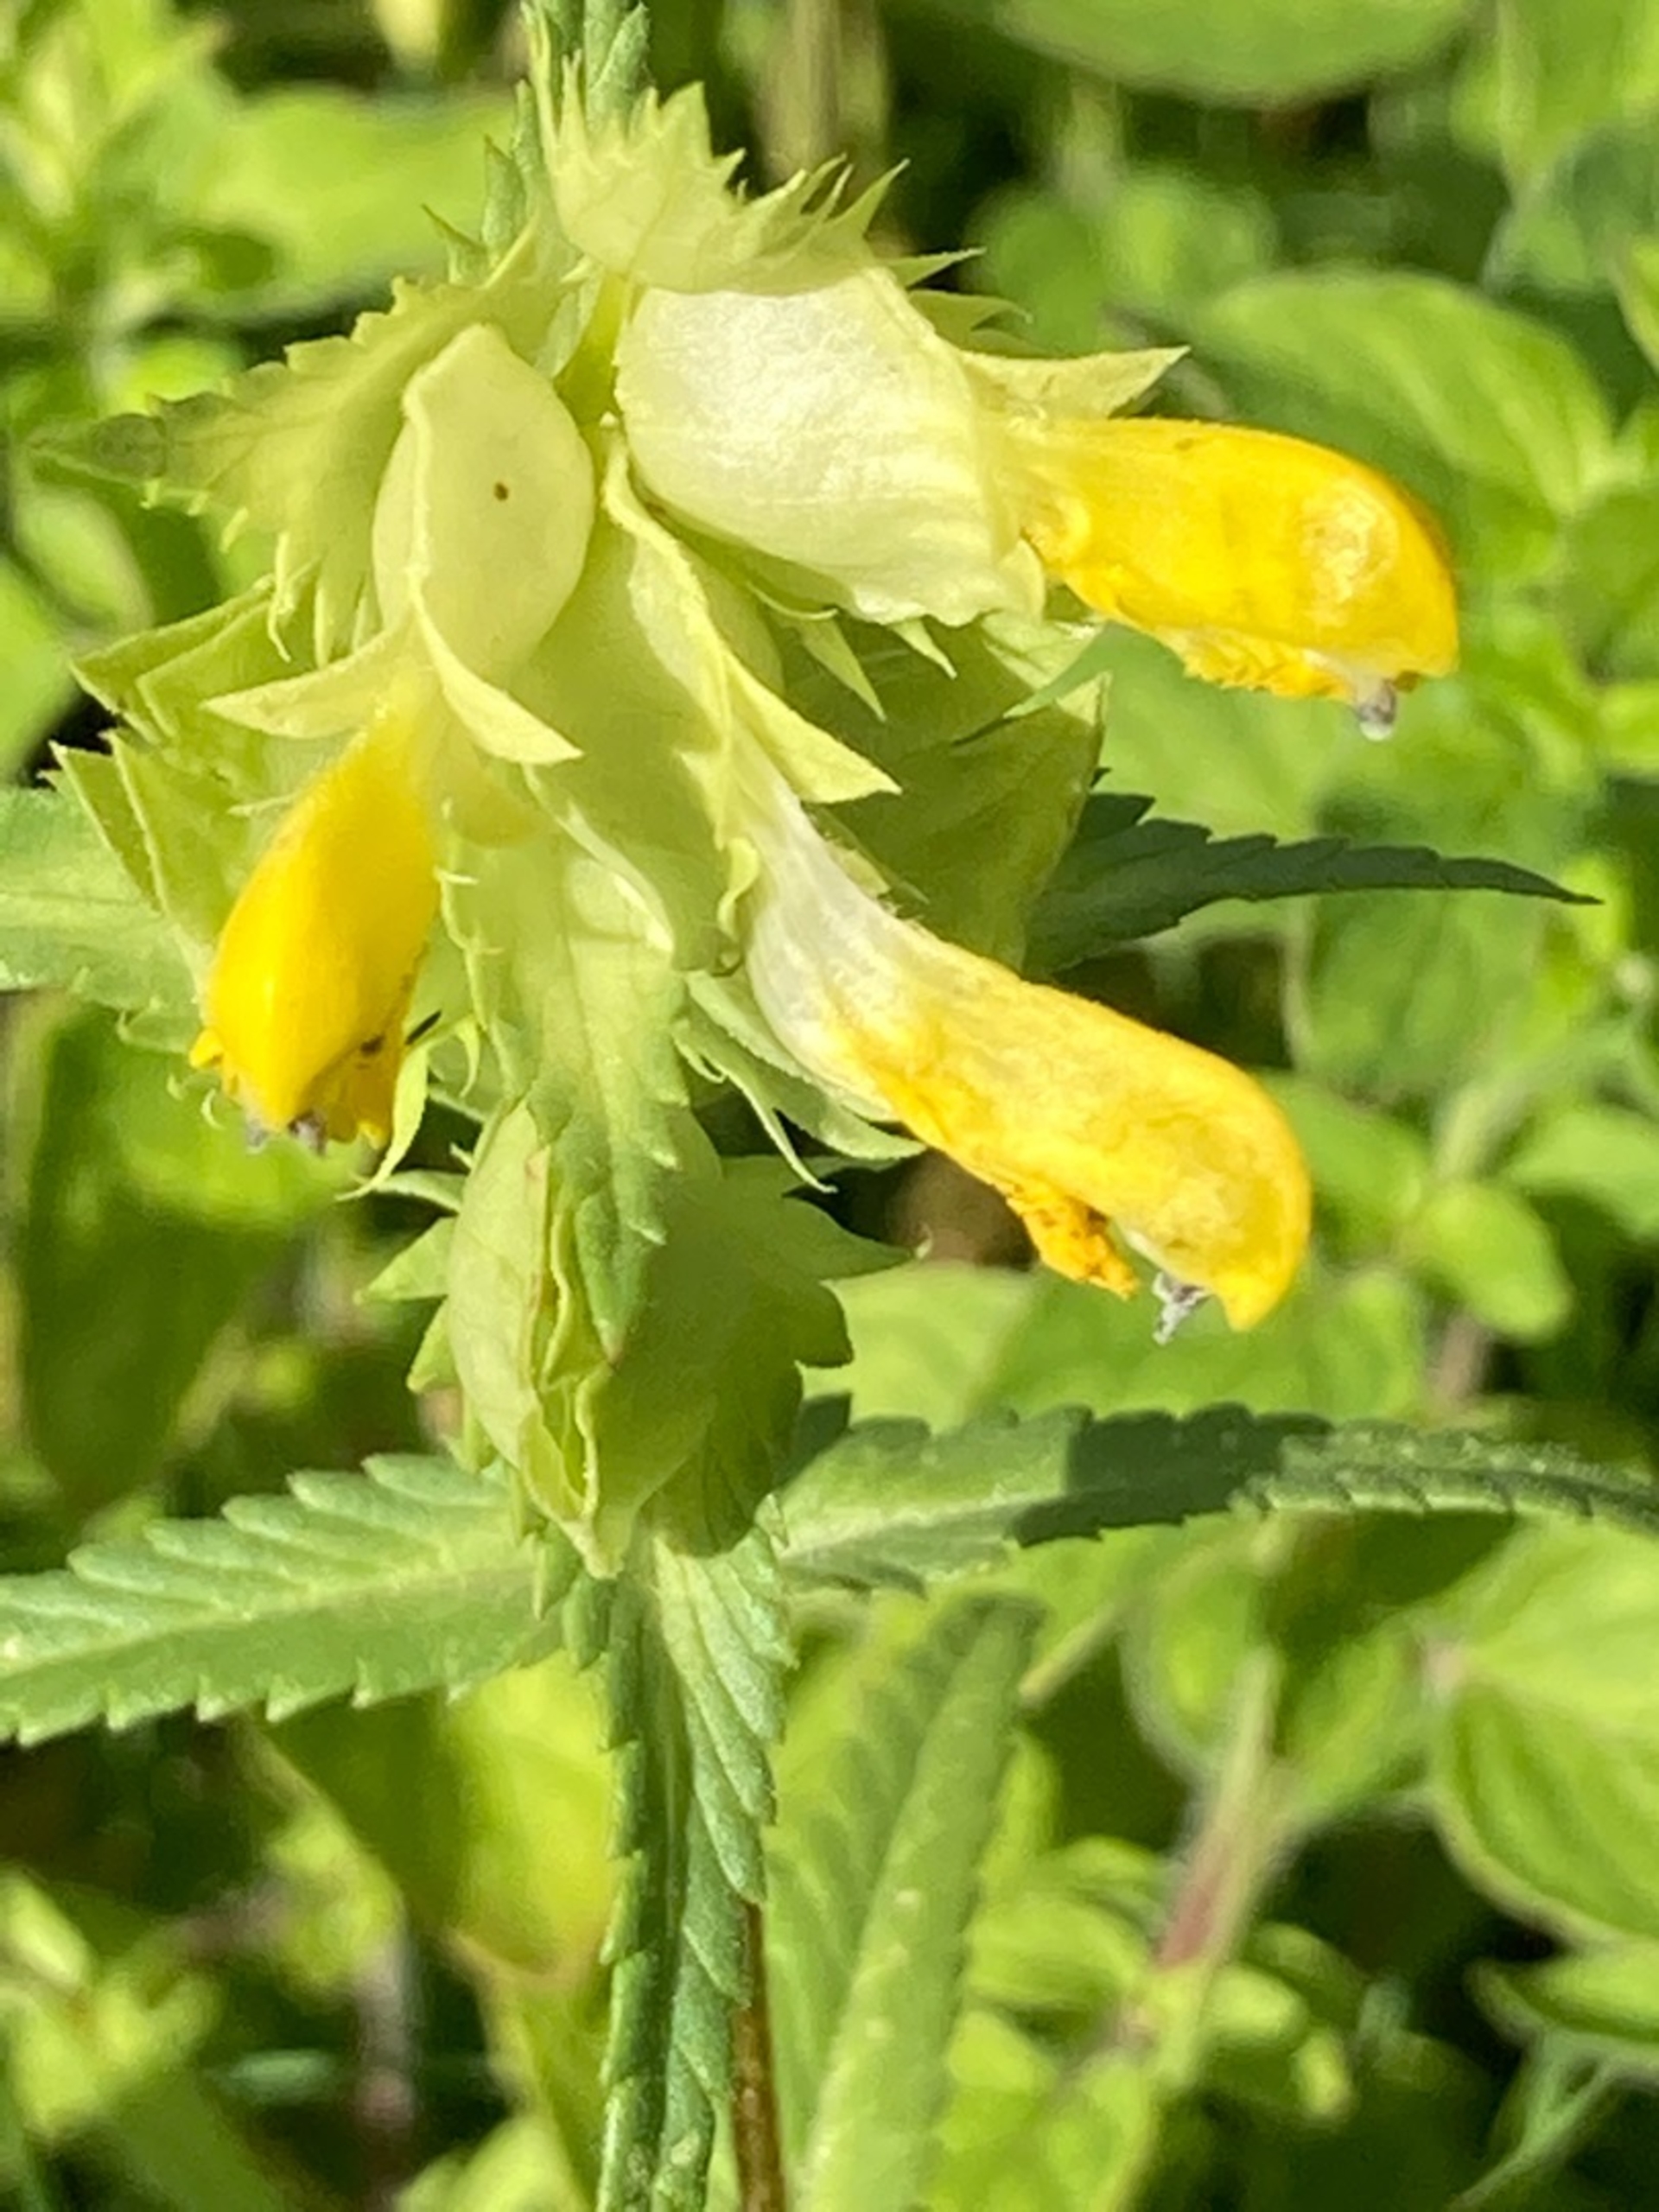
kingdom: Plantae
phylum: Tracheophyta
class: Magnoliopsida
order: Lamiales
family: Orobanchaceae
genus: Rhinanthus
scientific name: Rhinanthus
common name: Stor skjaller
